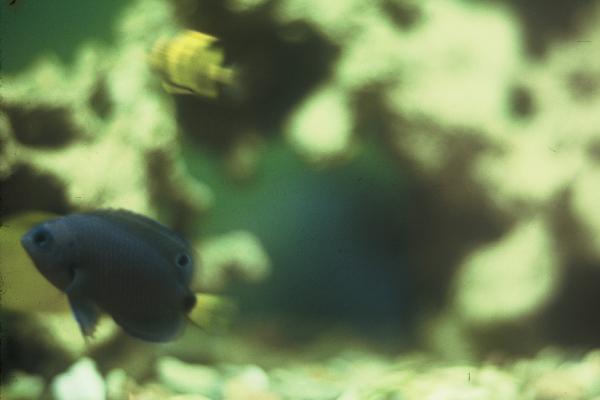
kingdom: Animalia
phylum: Chordata
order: Perciformes
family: Pomacentridae
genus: Pomacentrus
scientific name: Pomacentrus trichrourus
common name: Paletail damsel
